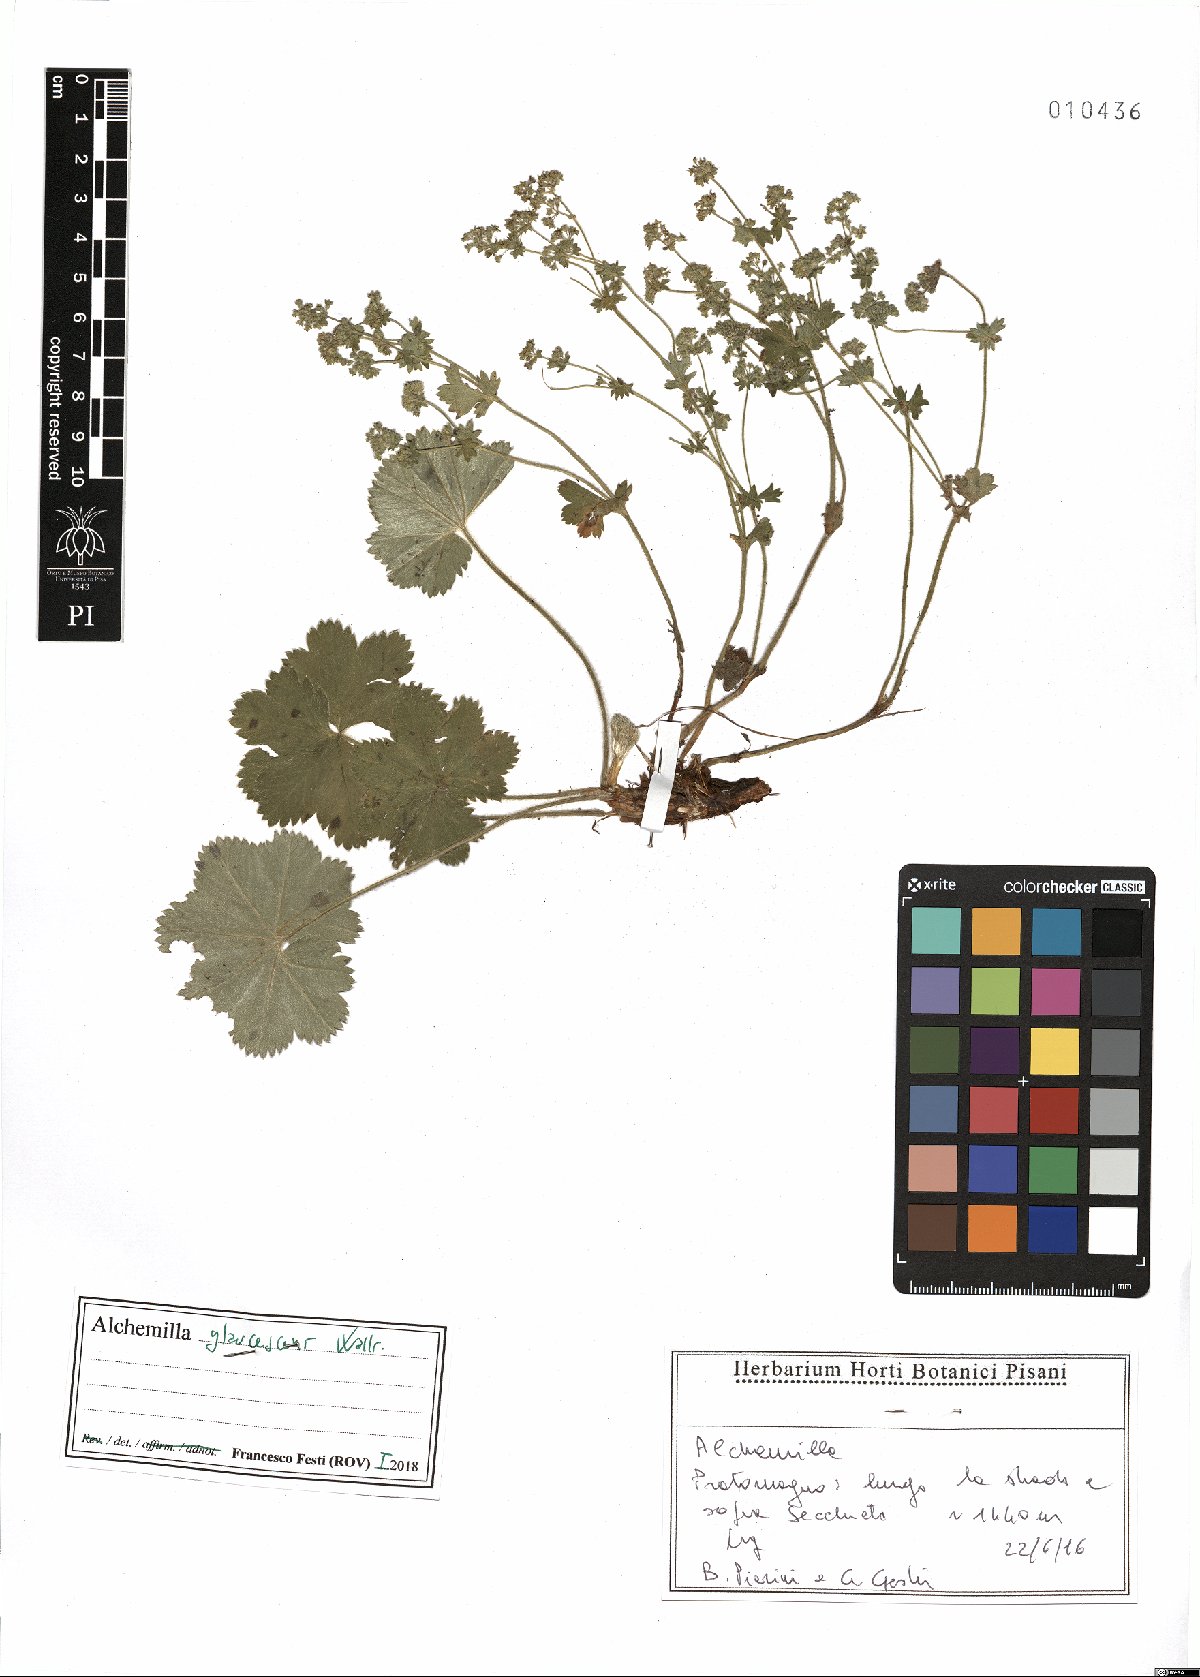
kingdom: Plantae
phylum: Tracheophyta
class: Magnoliopsida
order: Rosales
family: Rosaceae
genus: Alchemilla
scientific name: Alchemilla glaucescens
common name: Silky lady's mantle
